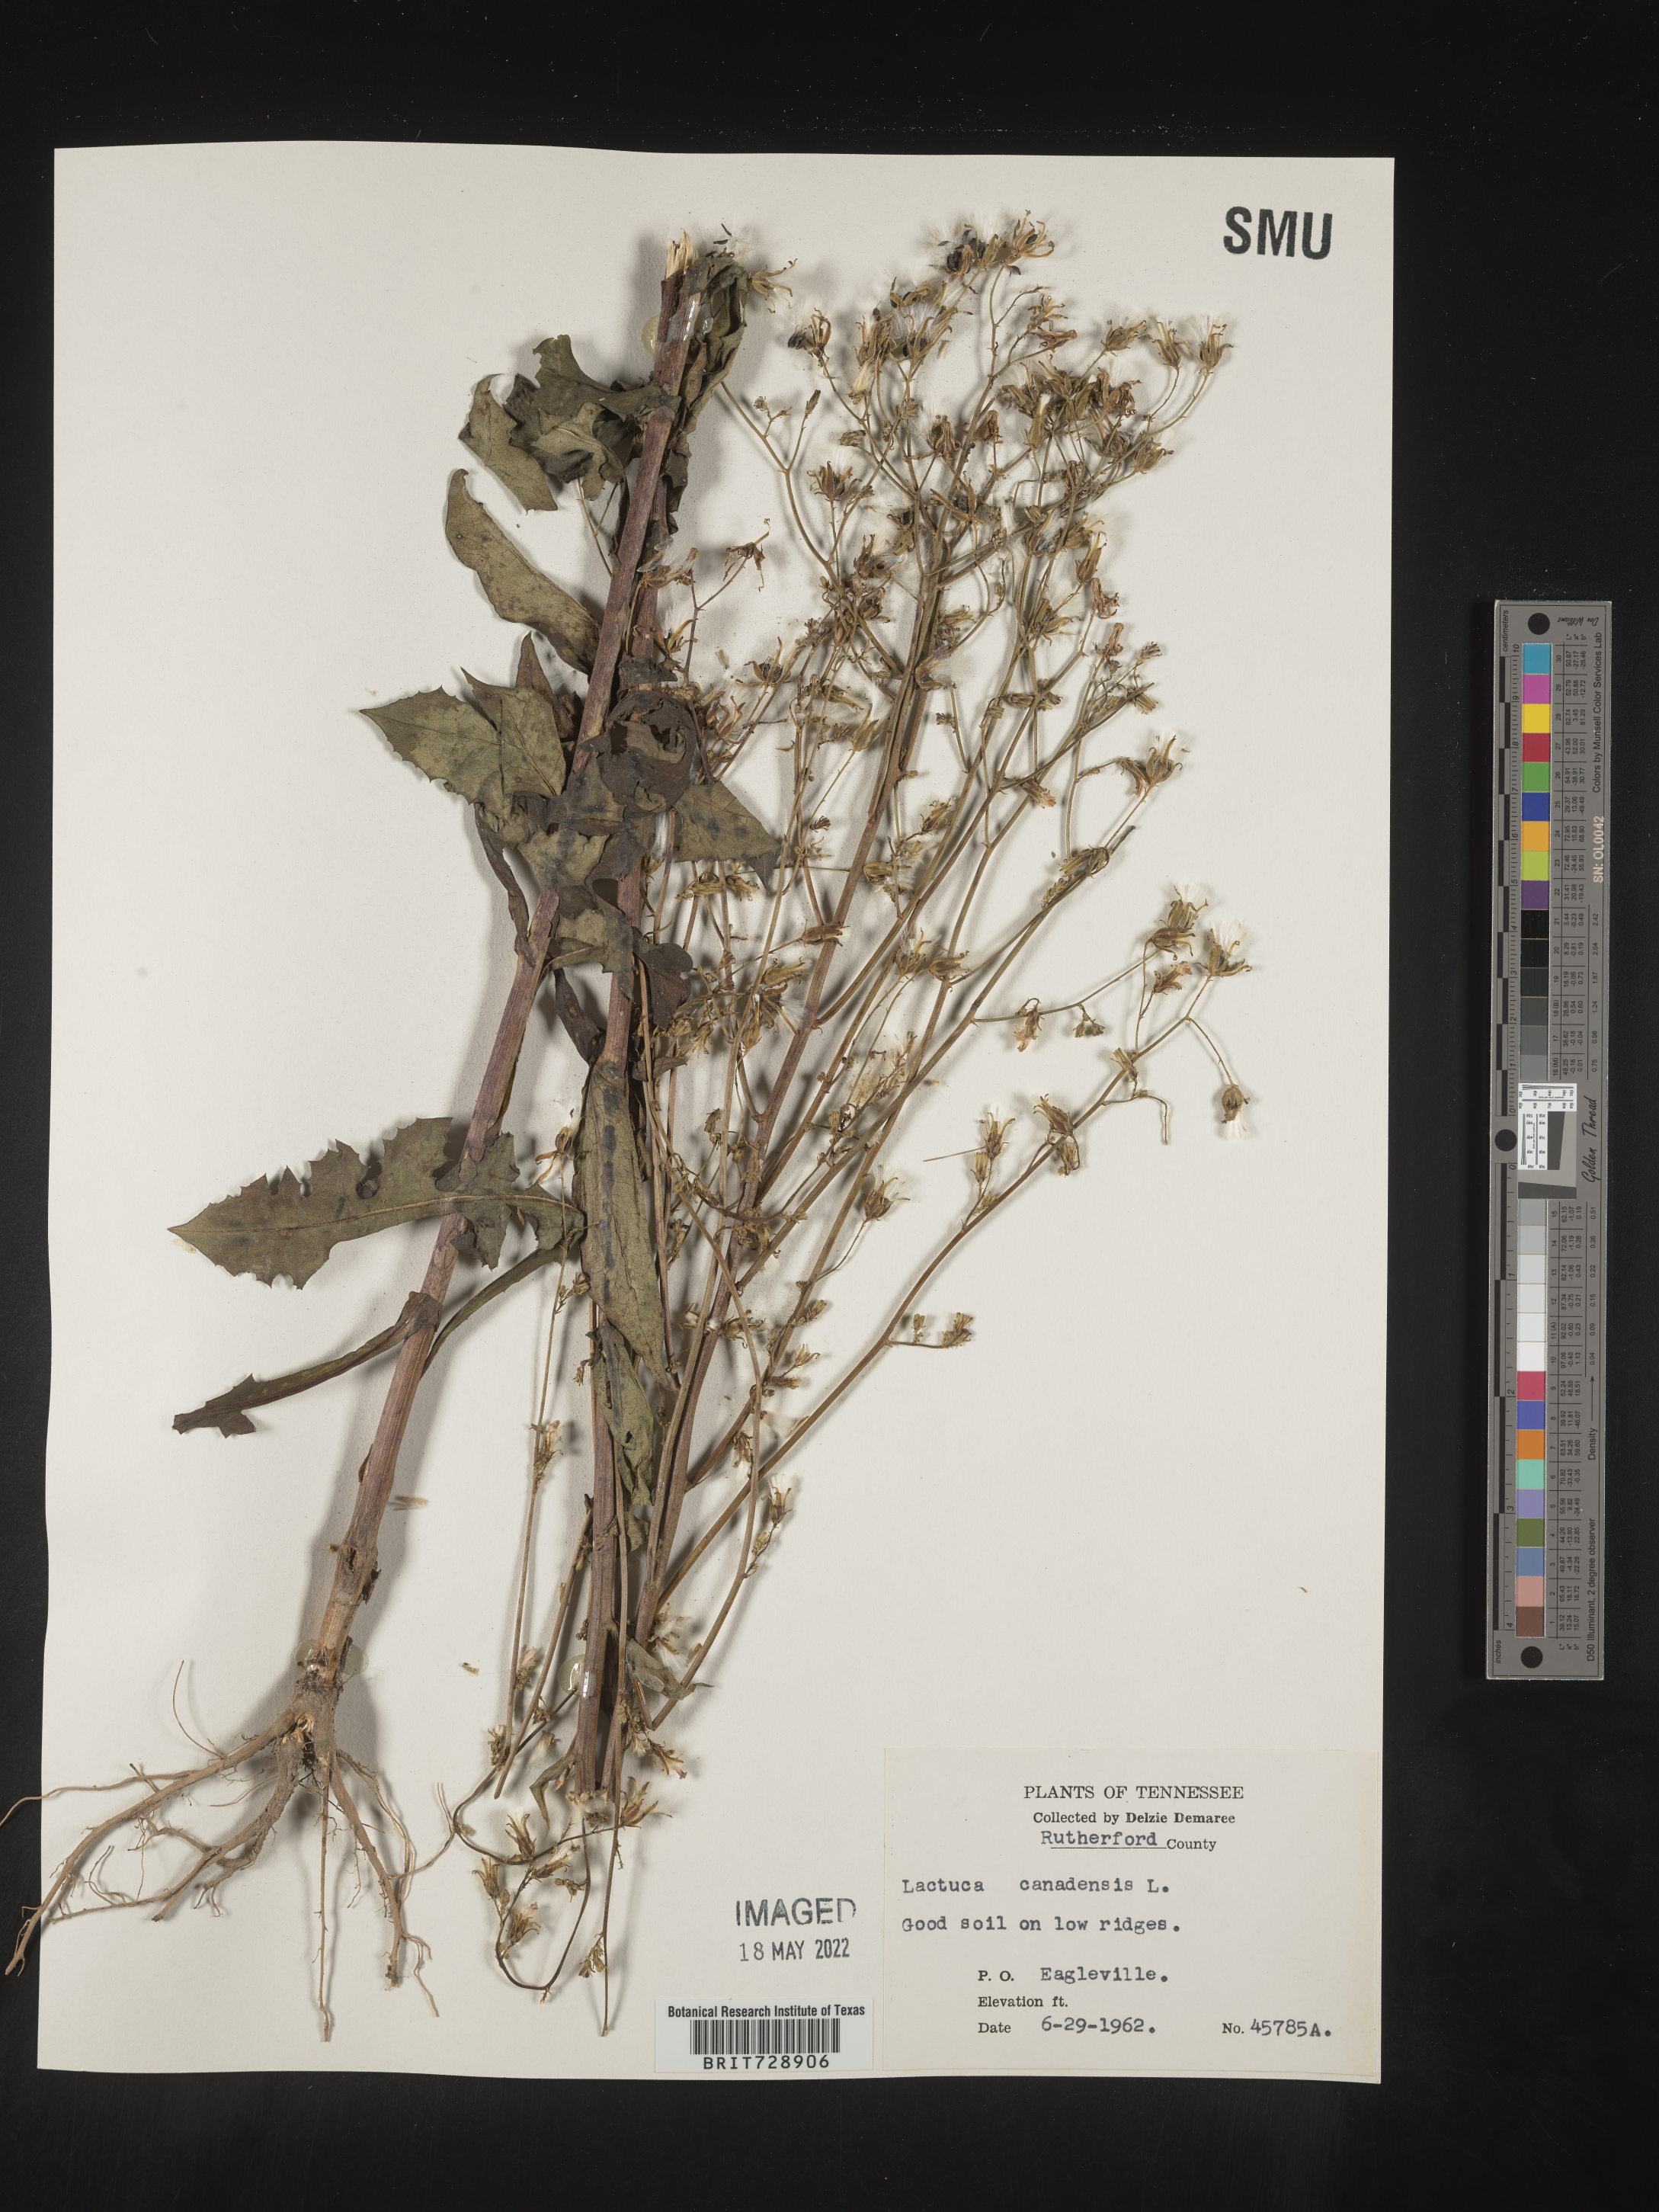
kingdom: Plantae
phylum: Tracheophyta
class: Magnoliopsida
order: Asterales
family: Asteraceae
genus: Lactuca
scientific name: Lactuca canadensis
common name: Canada lettuce
